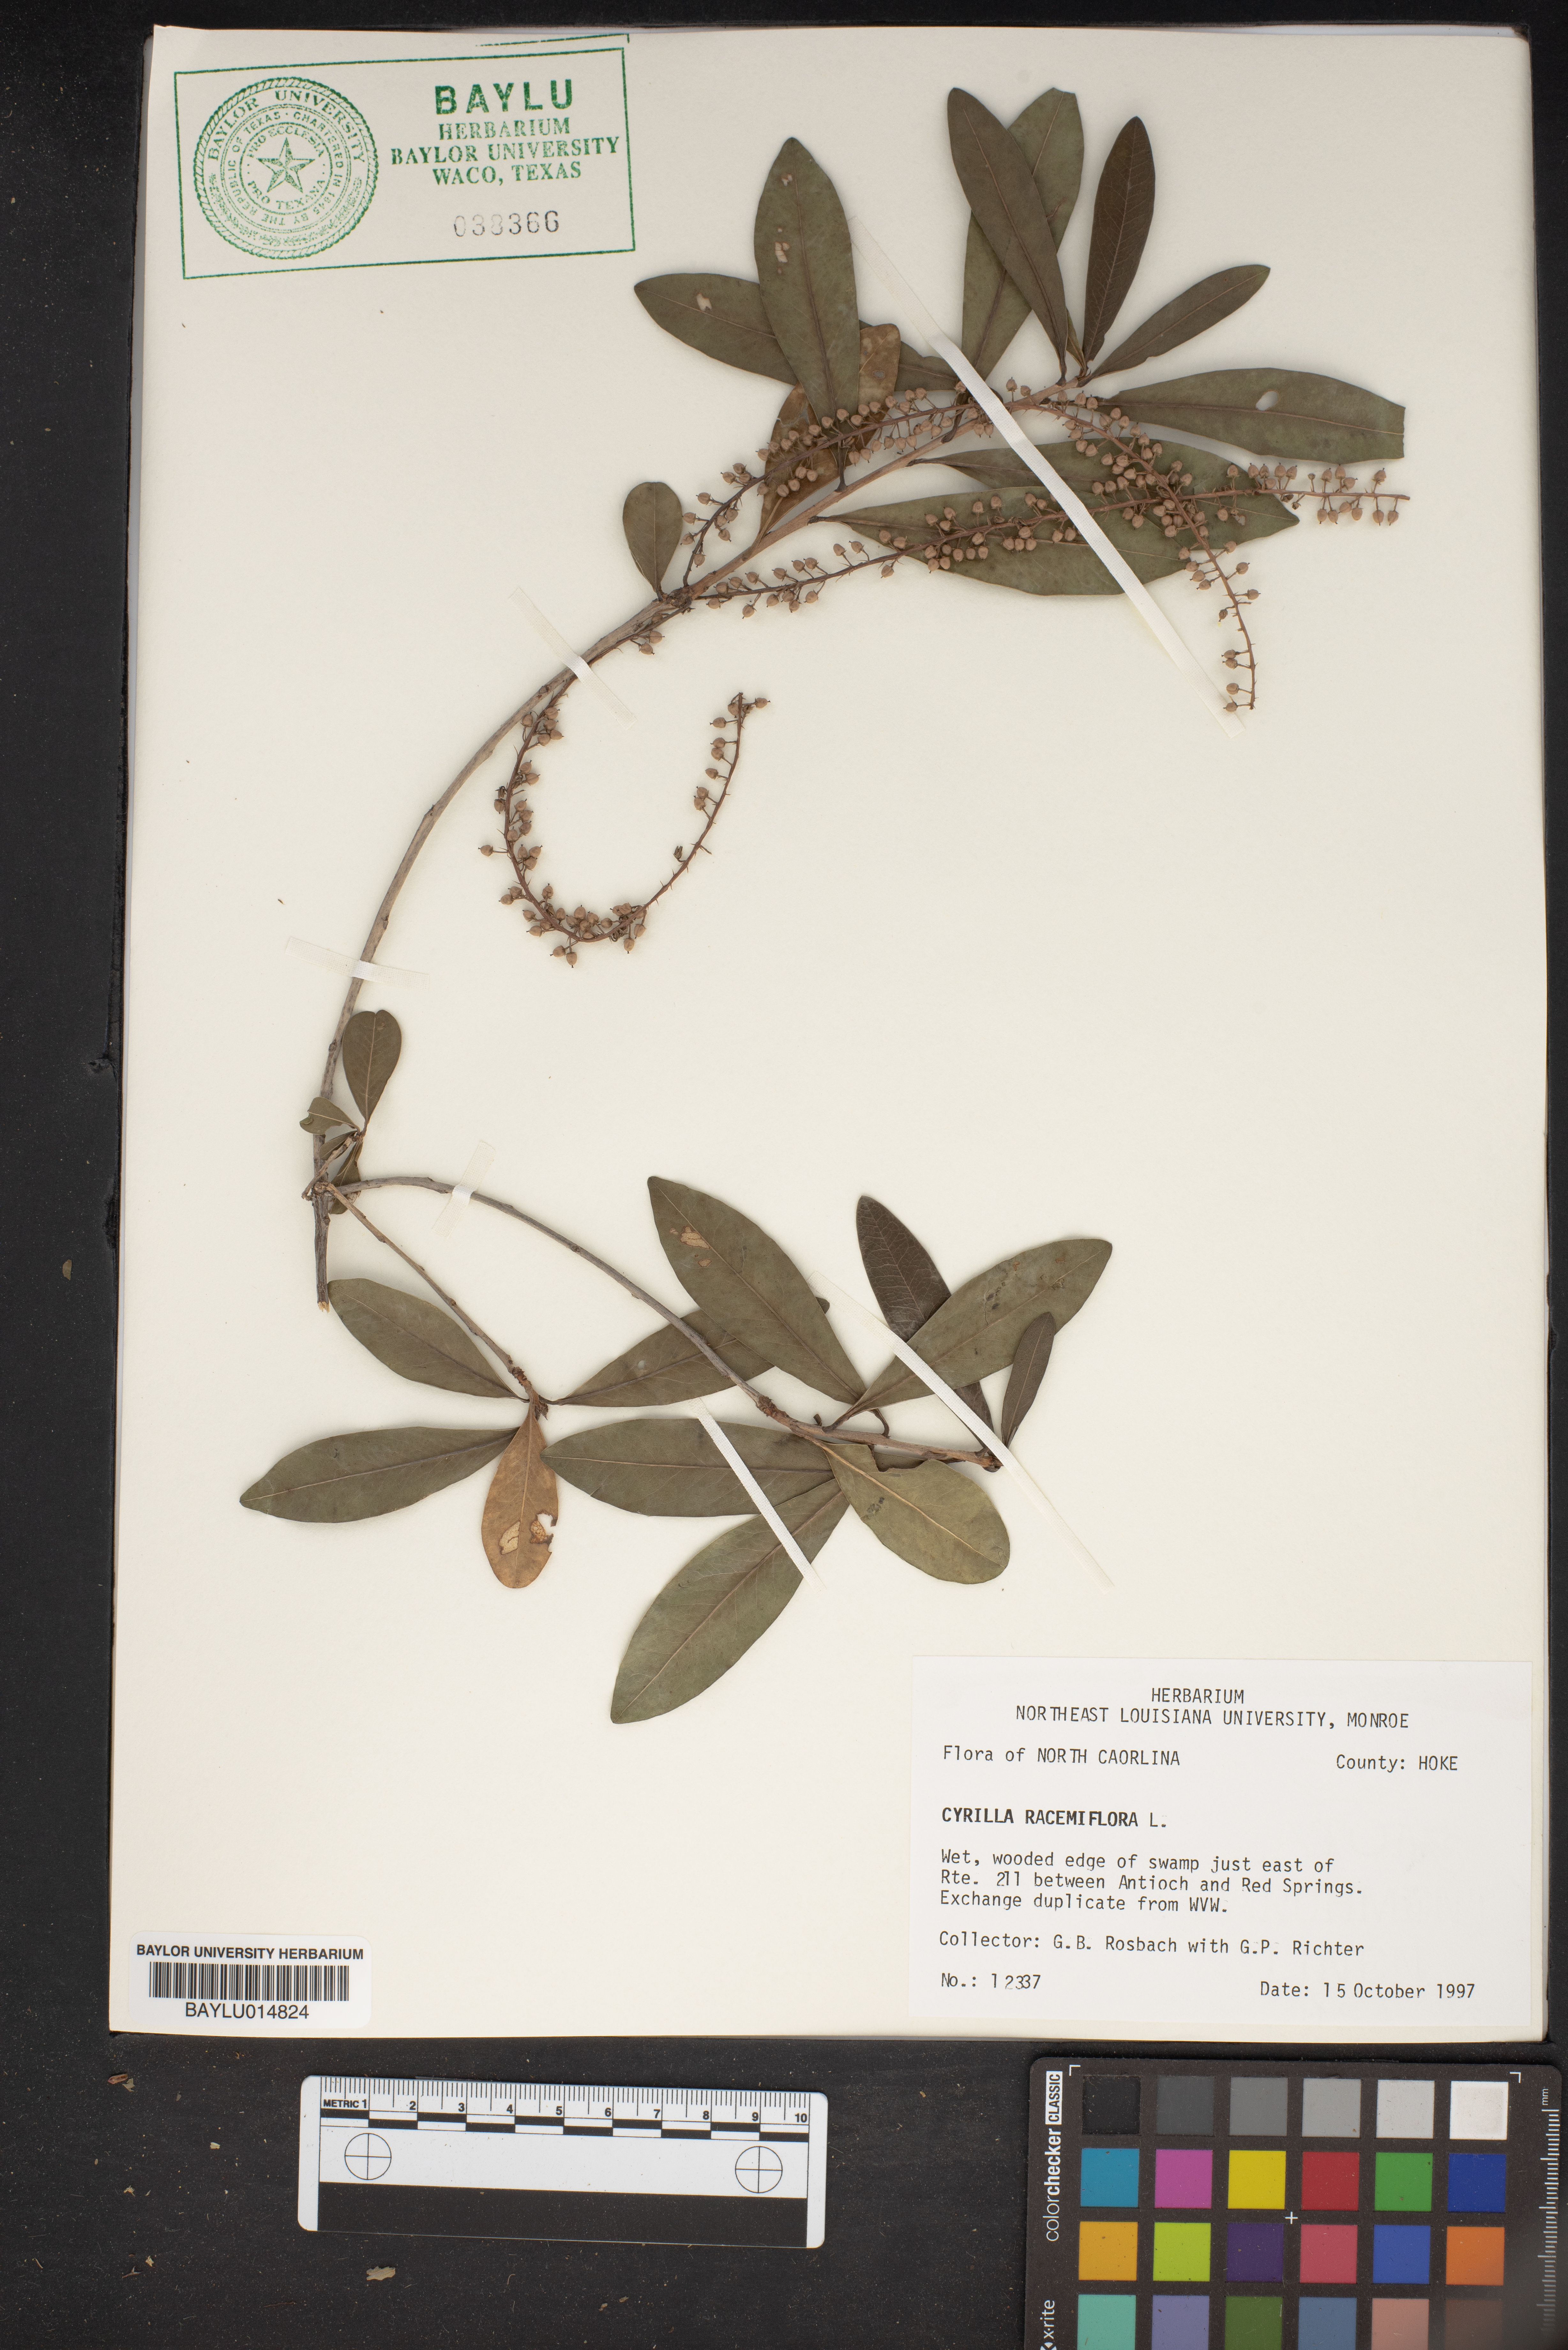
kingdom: Plantae
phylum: Tracheophyta
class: Magnoliopsida
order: Ericales
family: Cyrillaceae
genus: Cyrilla
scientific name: Cyrilla racemiflora
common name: Black titi
